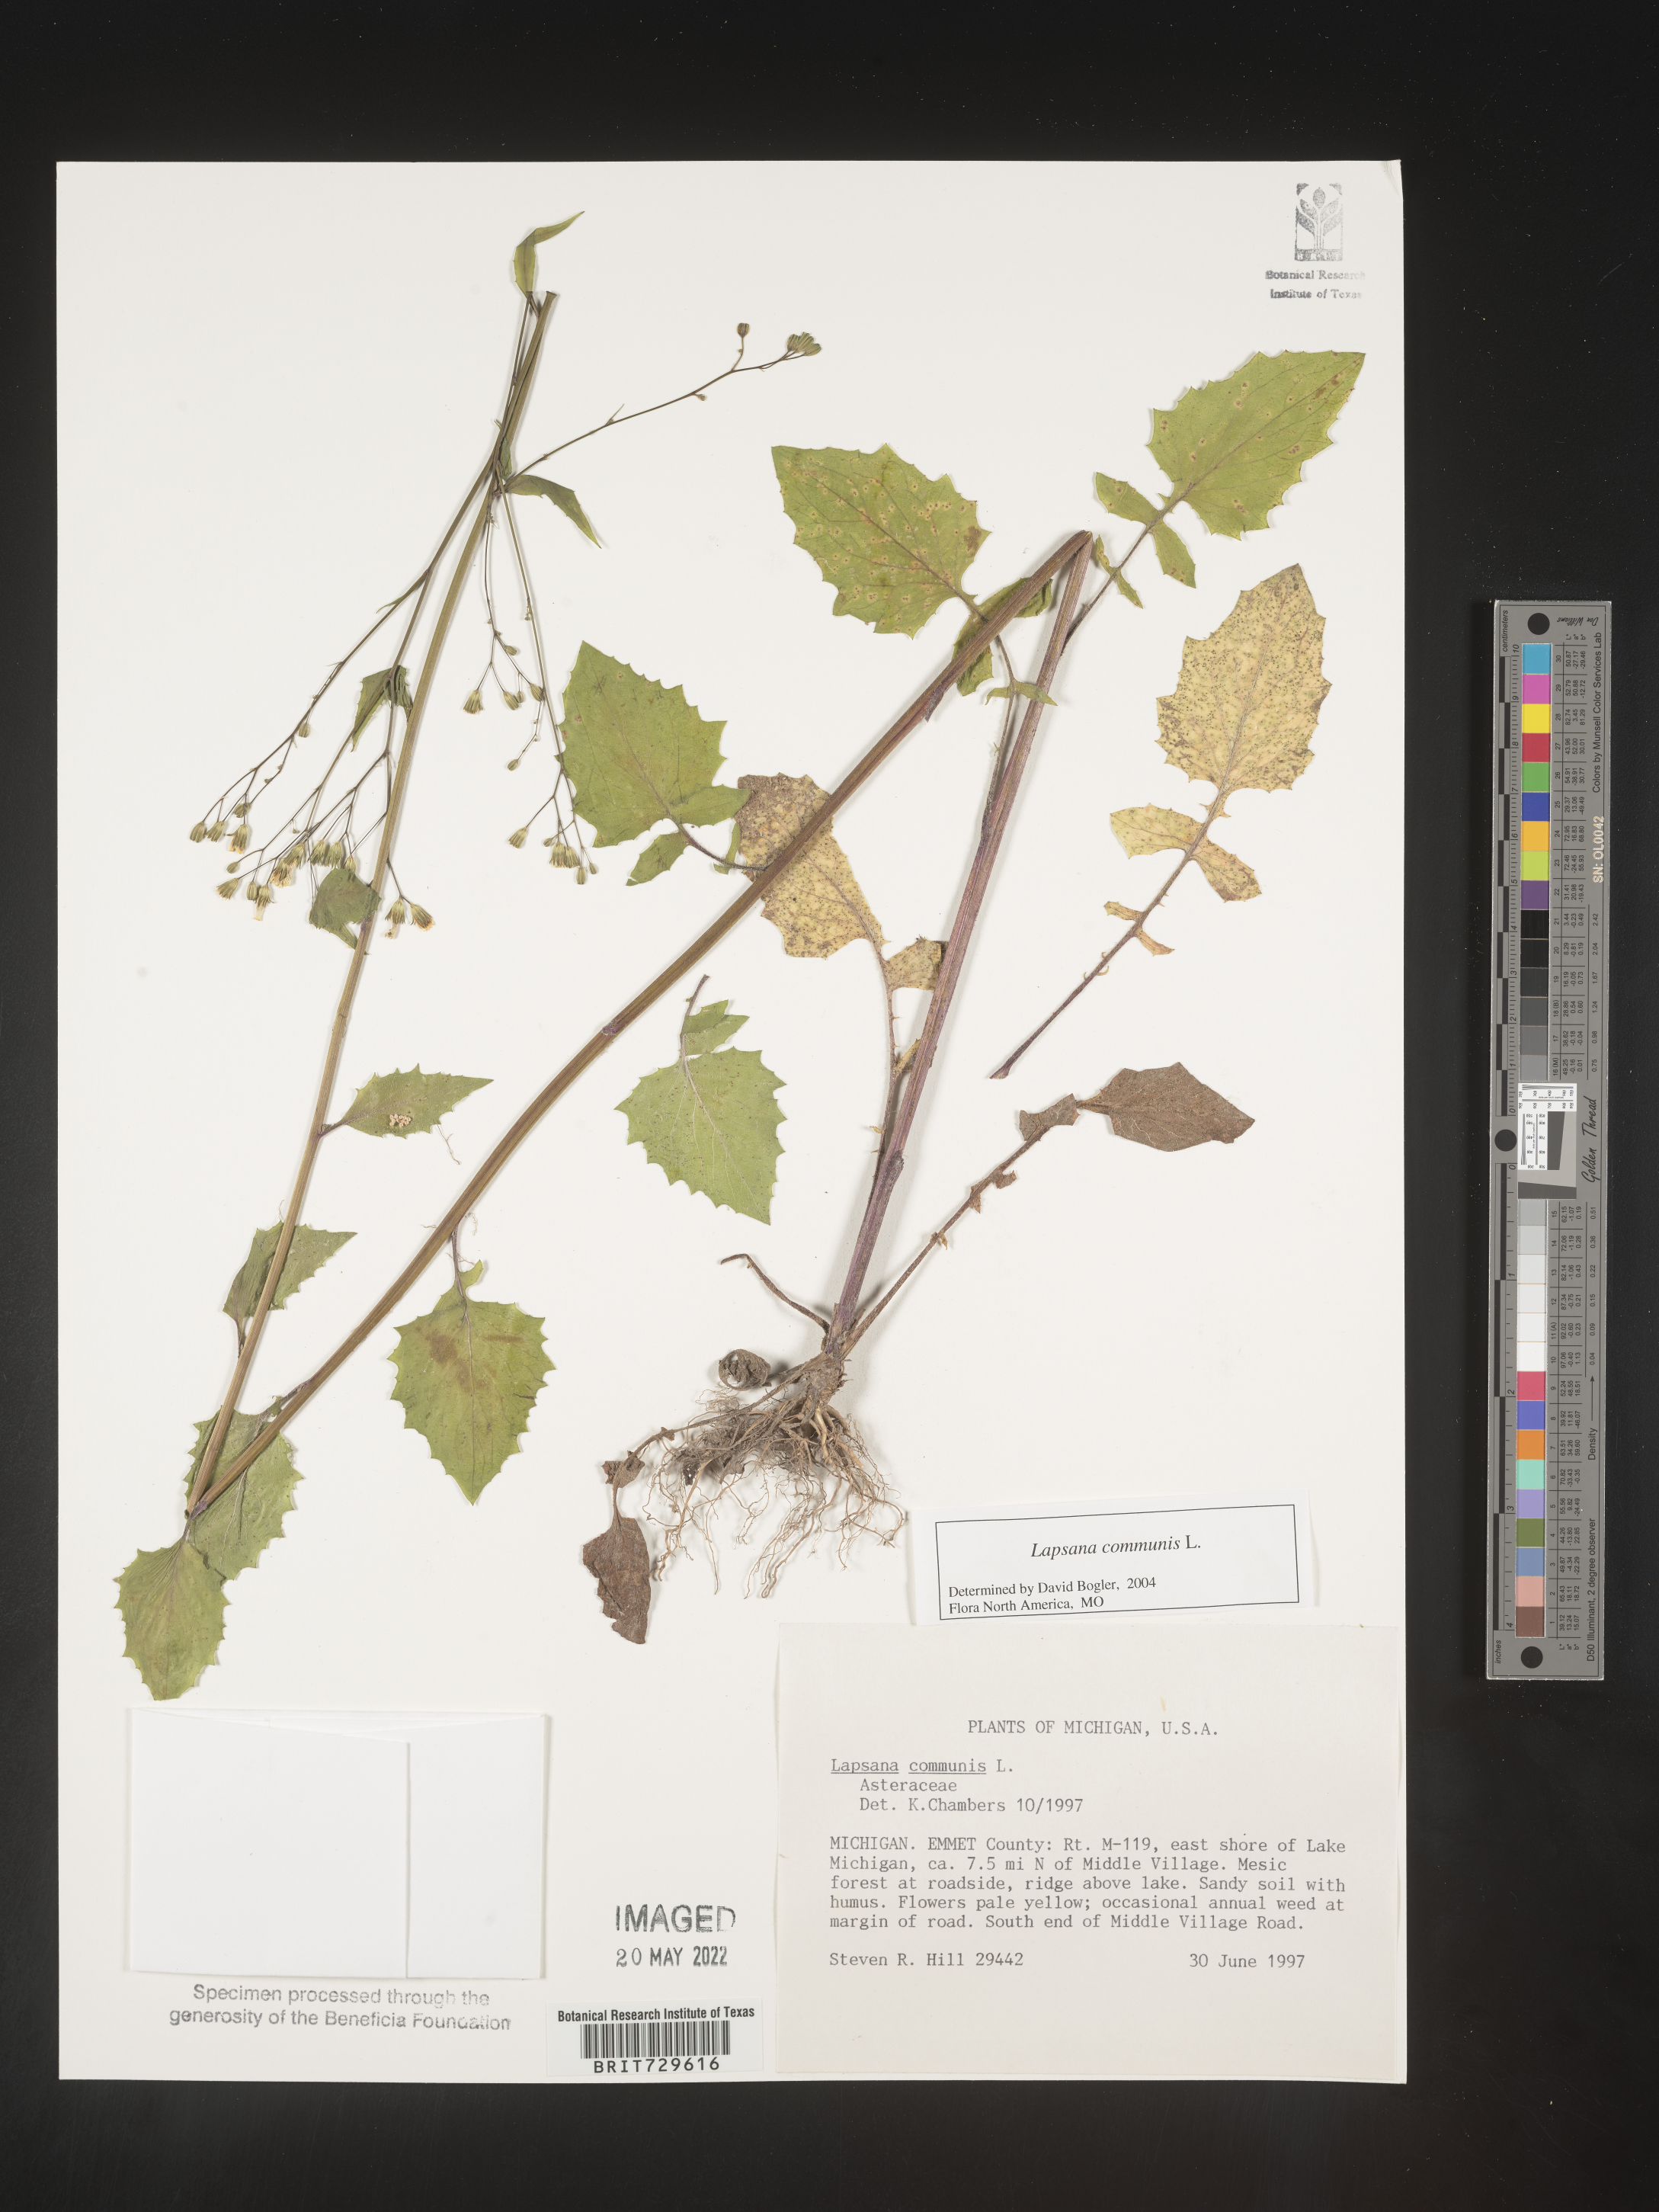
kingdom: Plantae
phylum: Tracheophyta
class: Magnoliopsida
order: Asterales
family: Asteraceae
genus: Lapsana
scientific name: Lapsana
